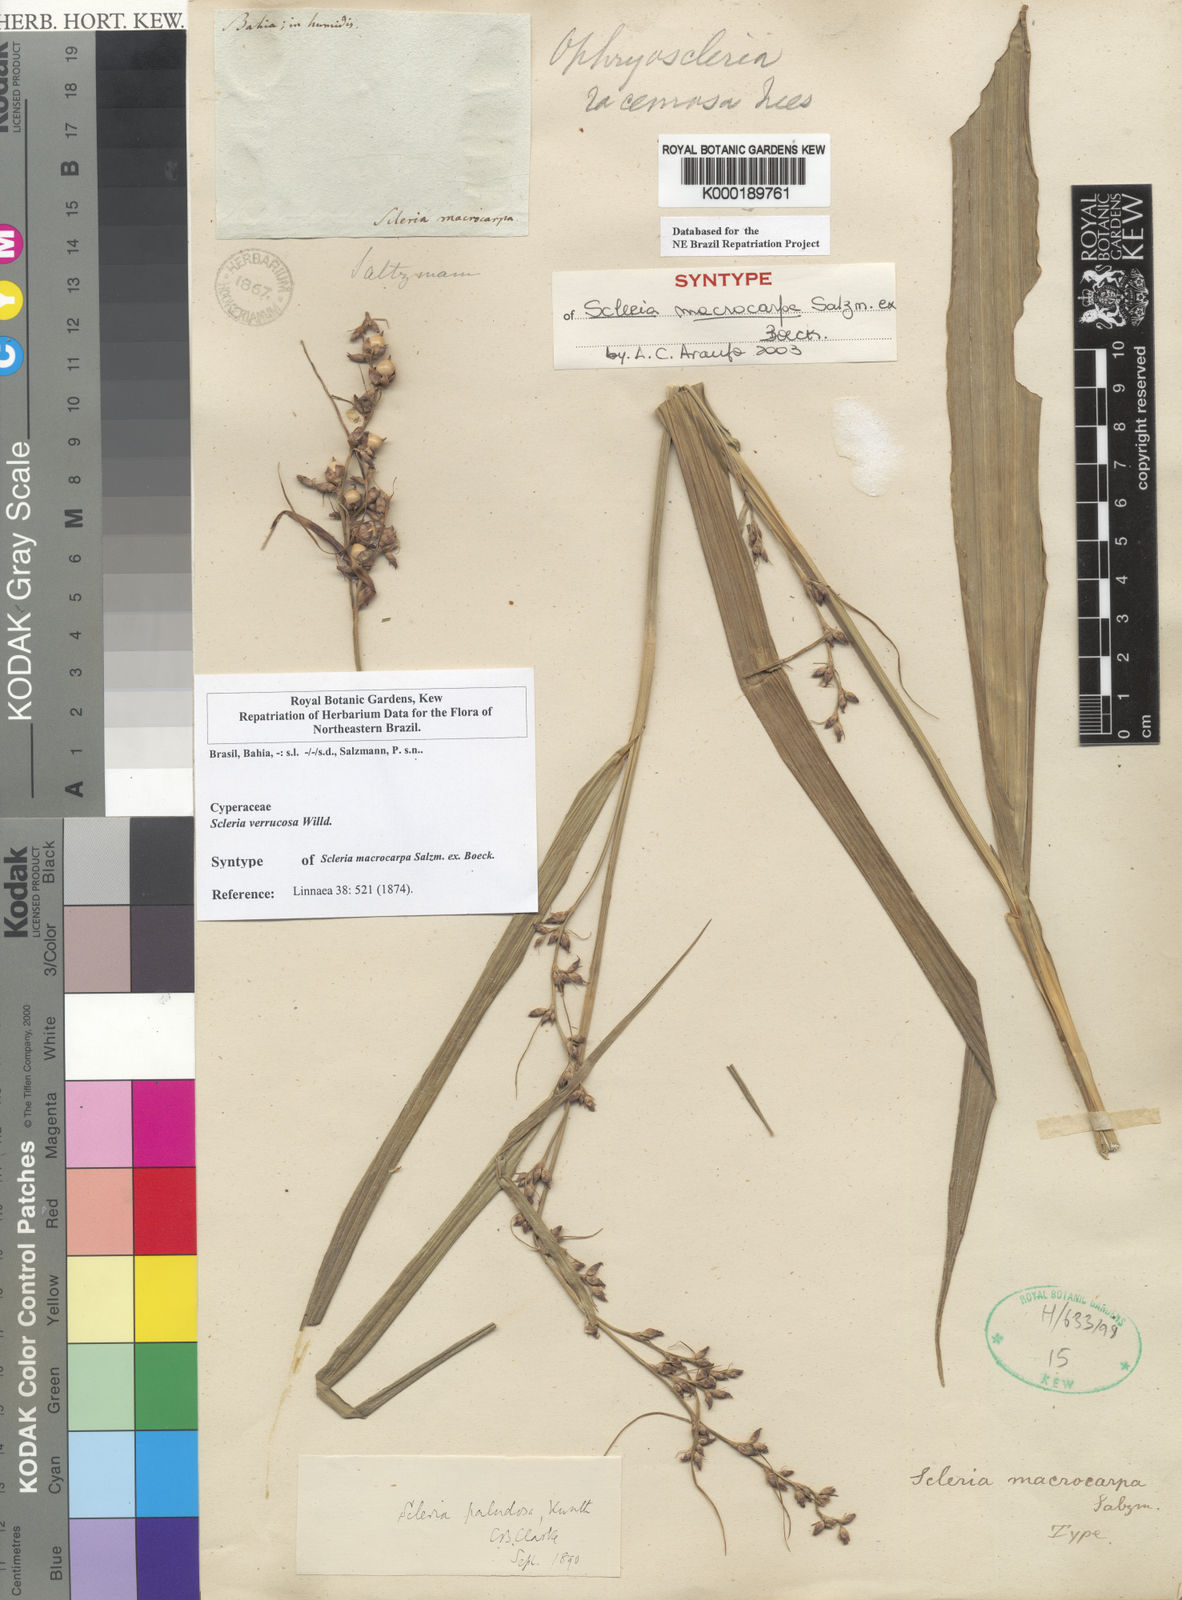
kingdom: Plantae
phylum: Tracheophyta
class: Liliopsida
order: Poales
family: Cyperaceae
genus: Scleria
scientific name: Scleria
